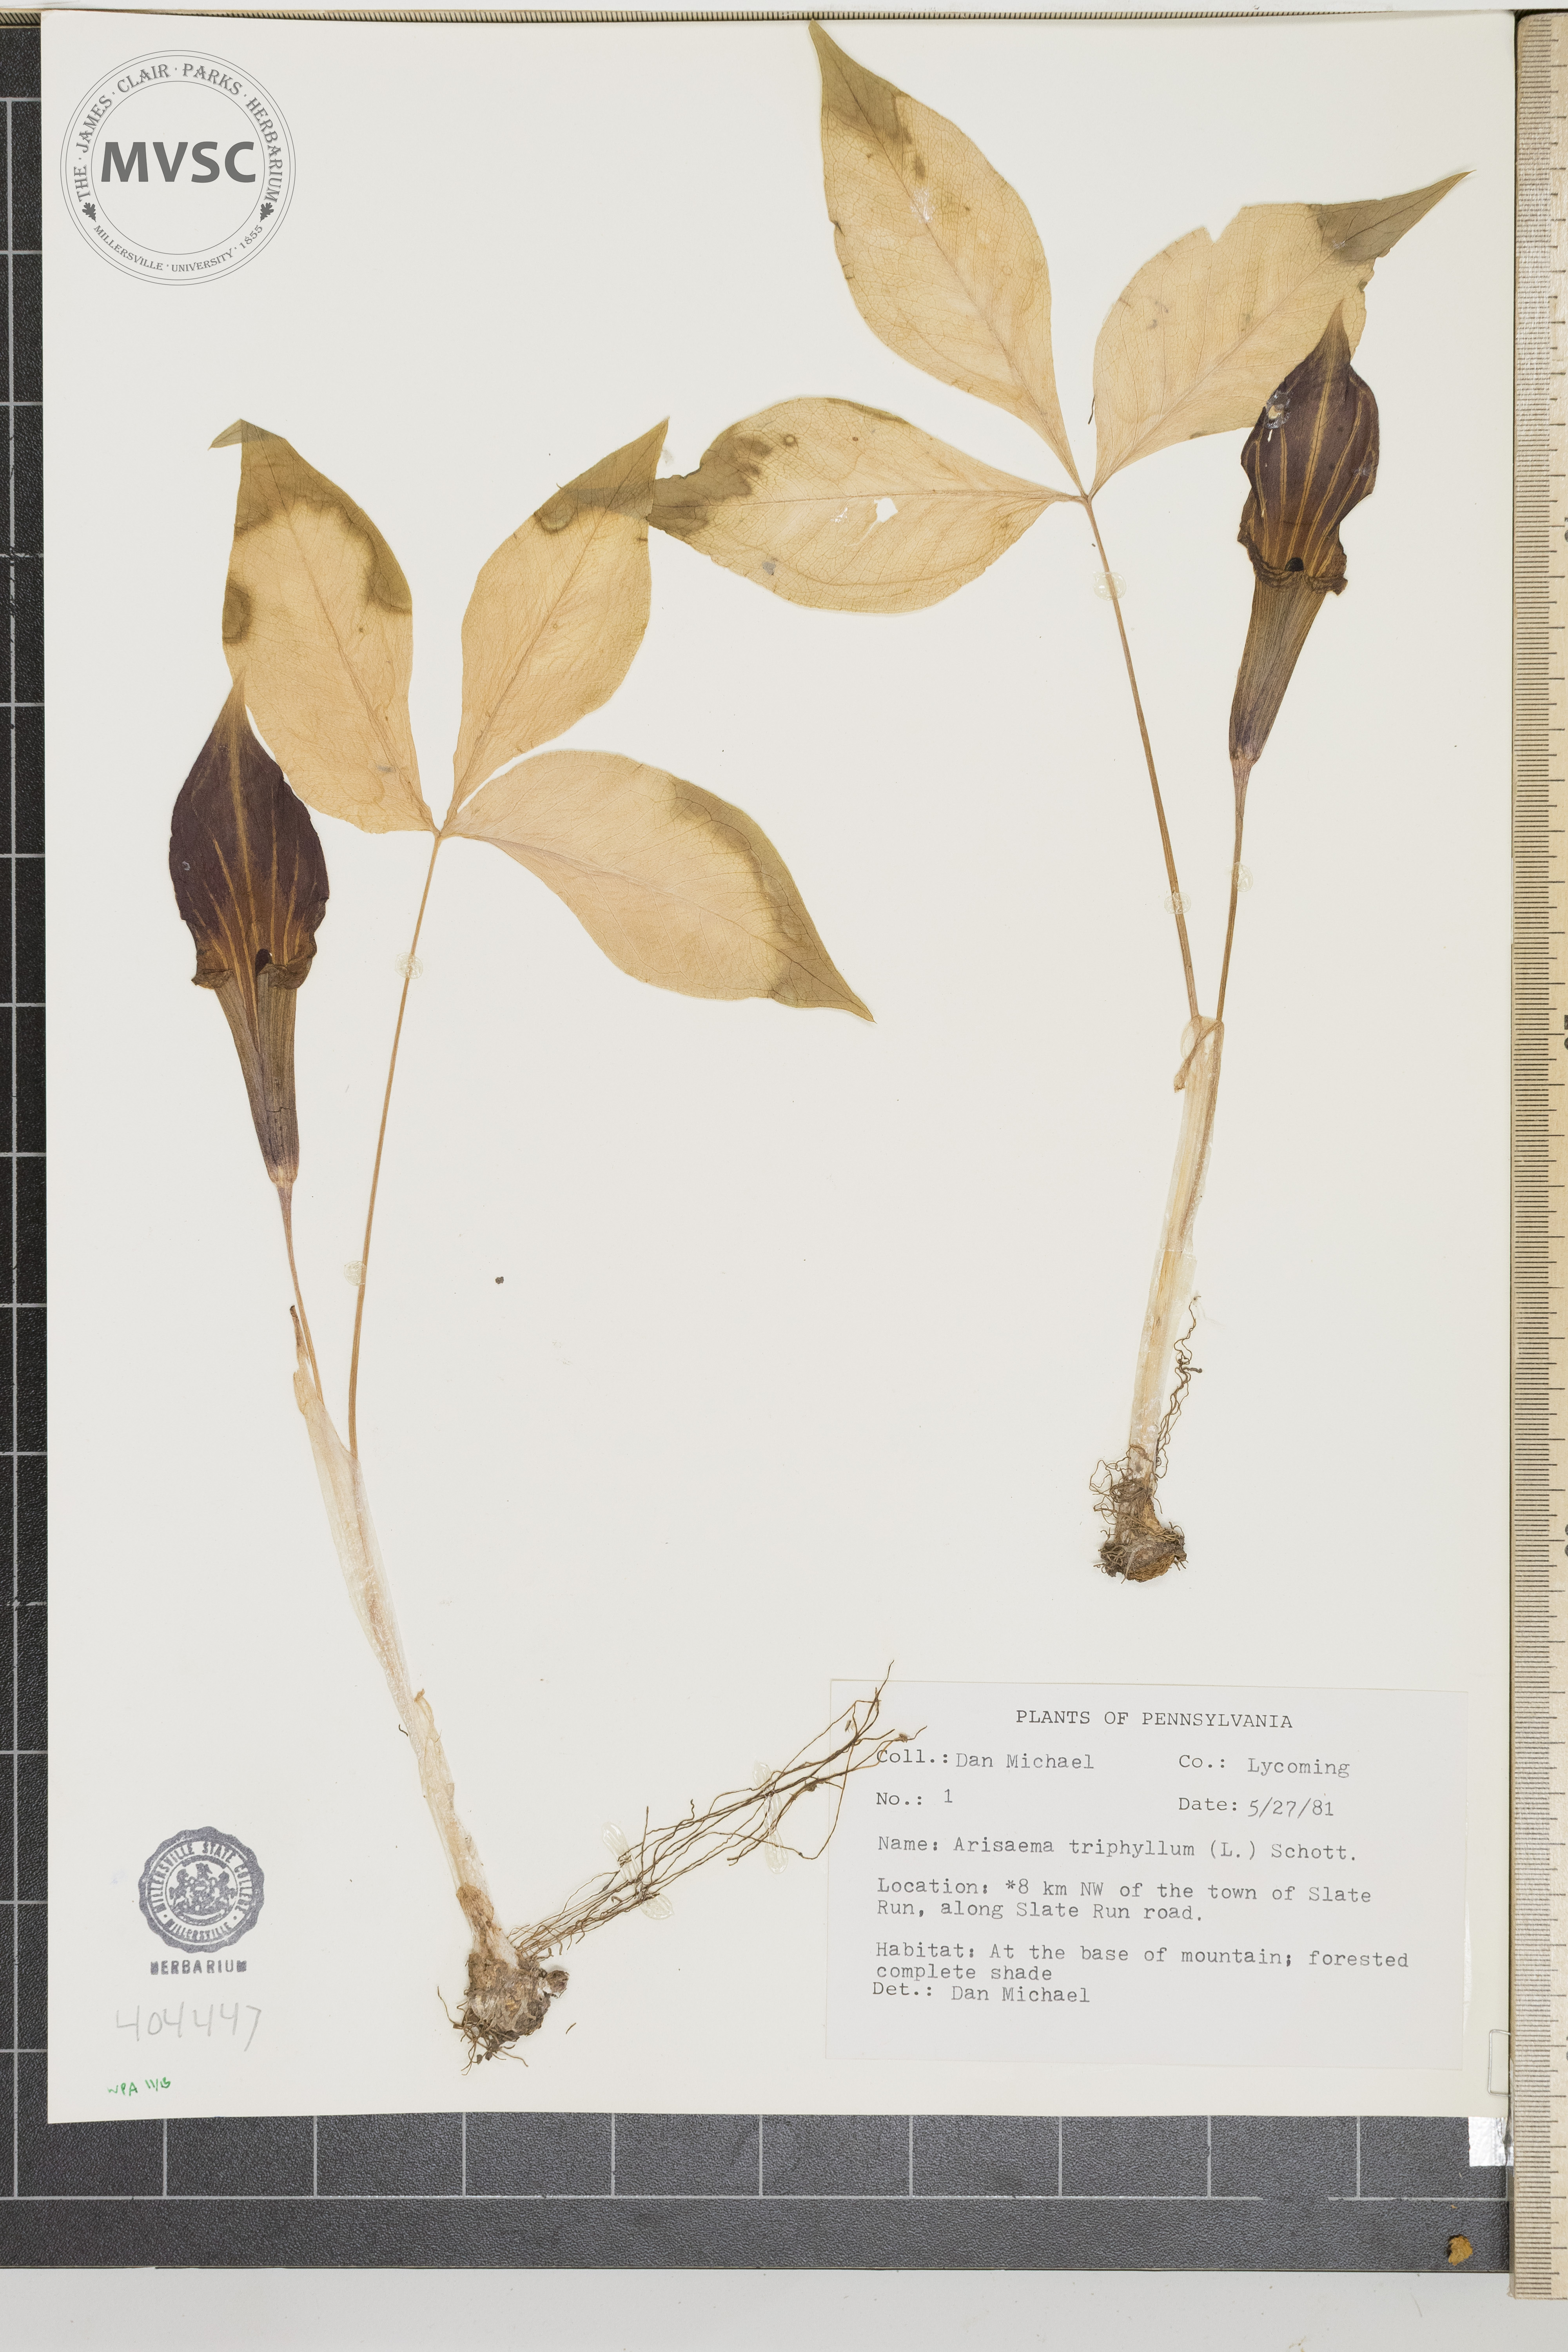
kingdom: Plantae
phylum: Tracheophyta
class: Liliopsida
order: Alismatales
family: Araceae
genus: Arisaema
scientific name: Arisaema triphyllum
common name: Jack-in-the-pulpit
